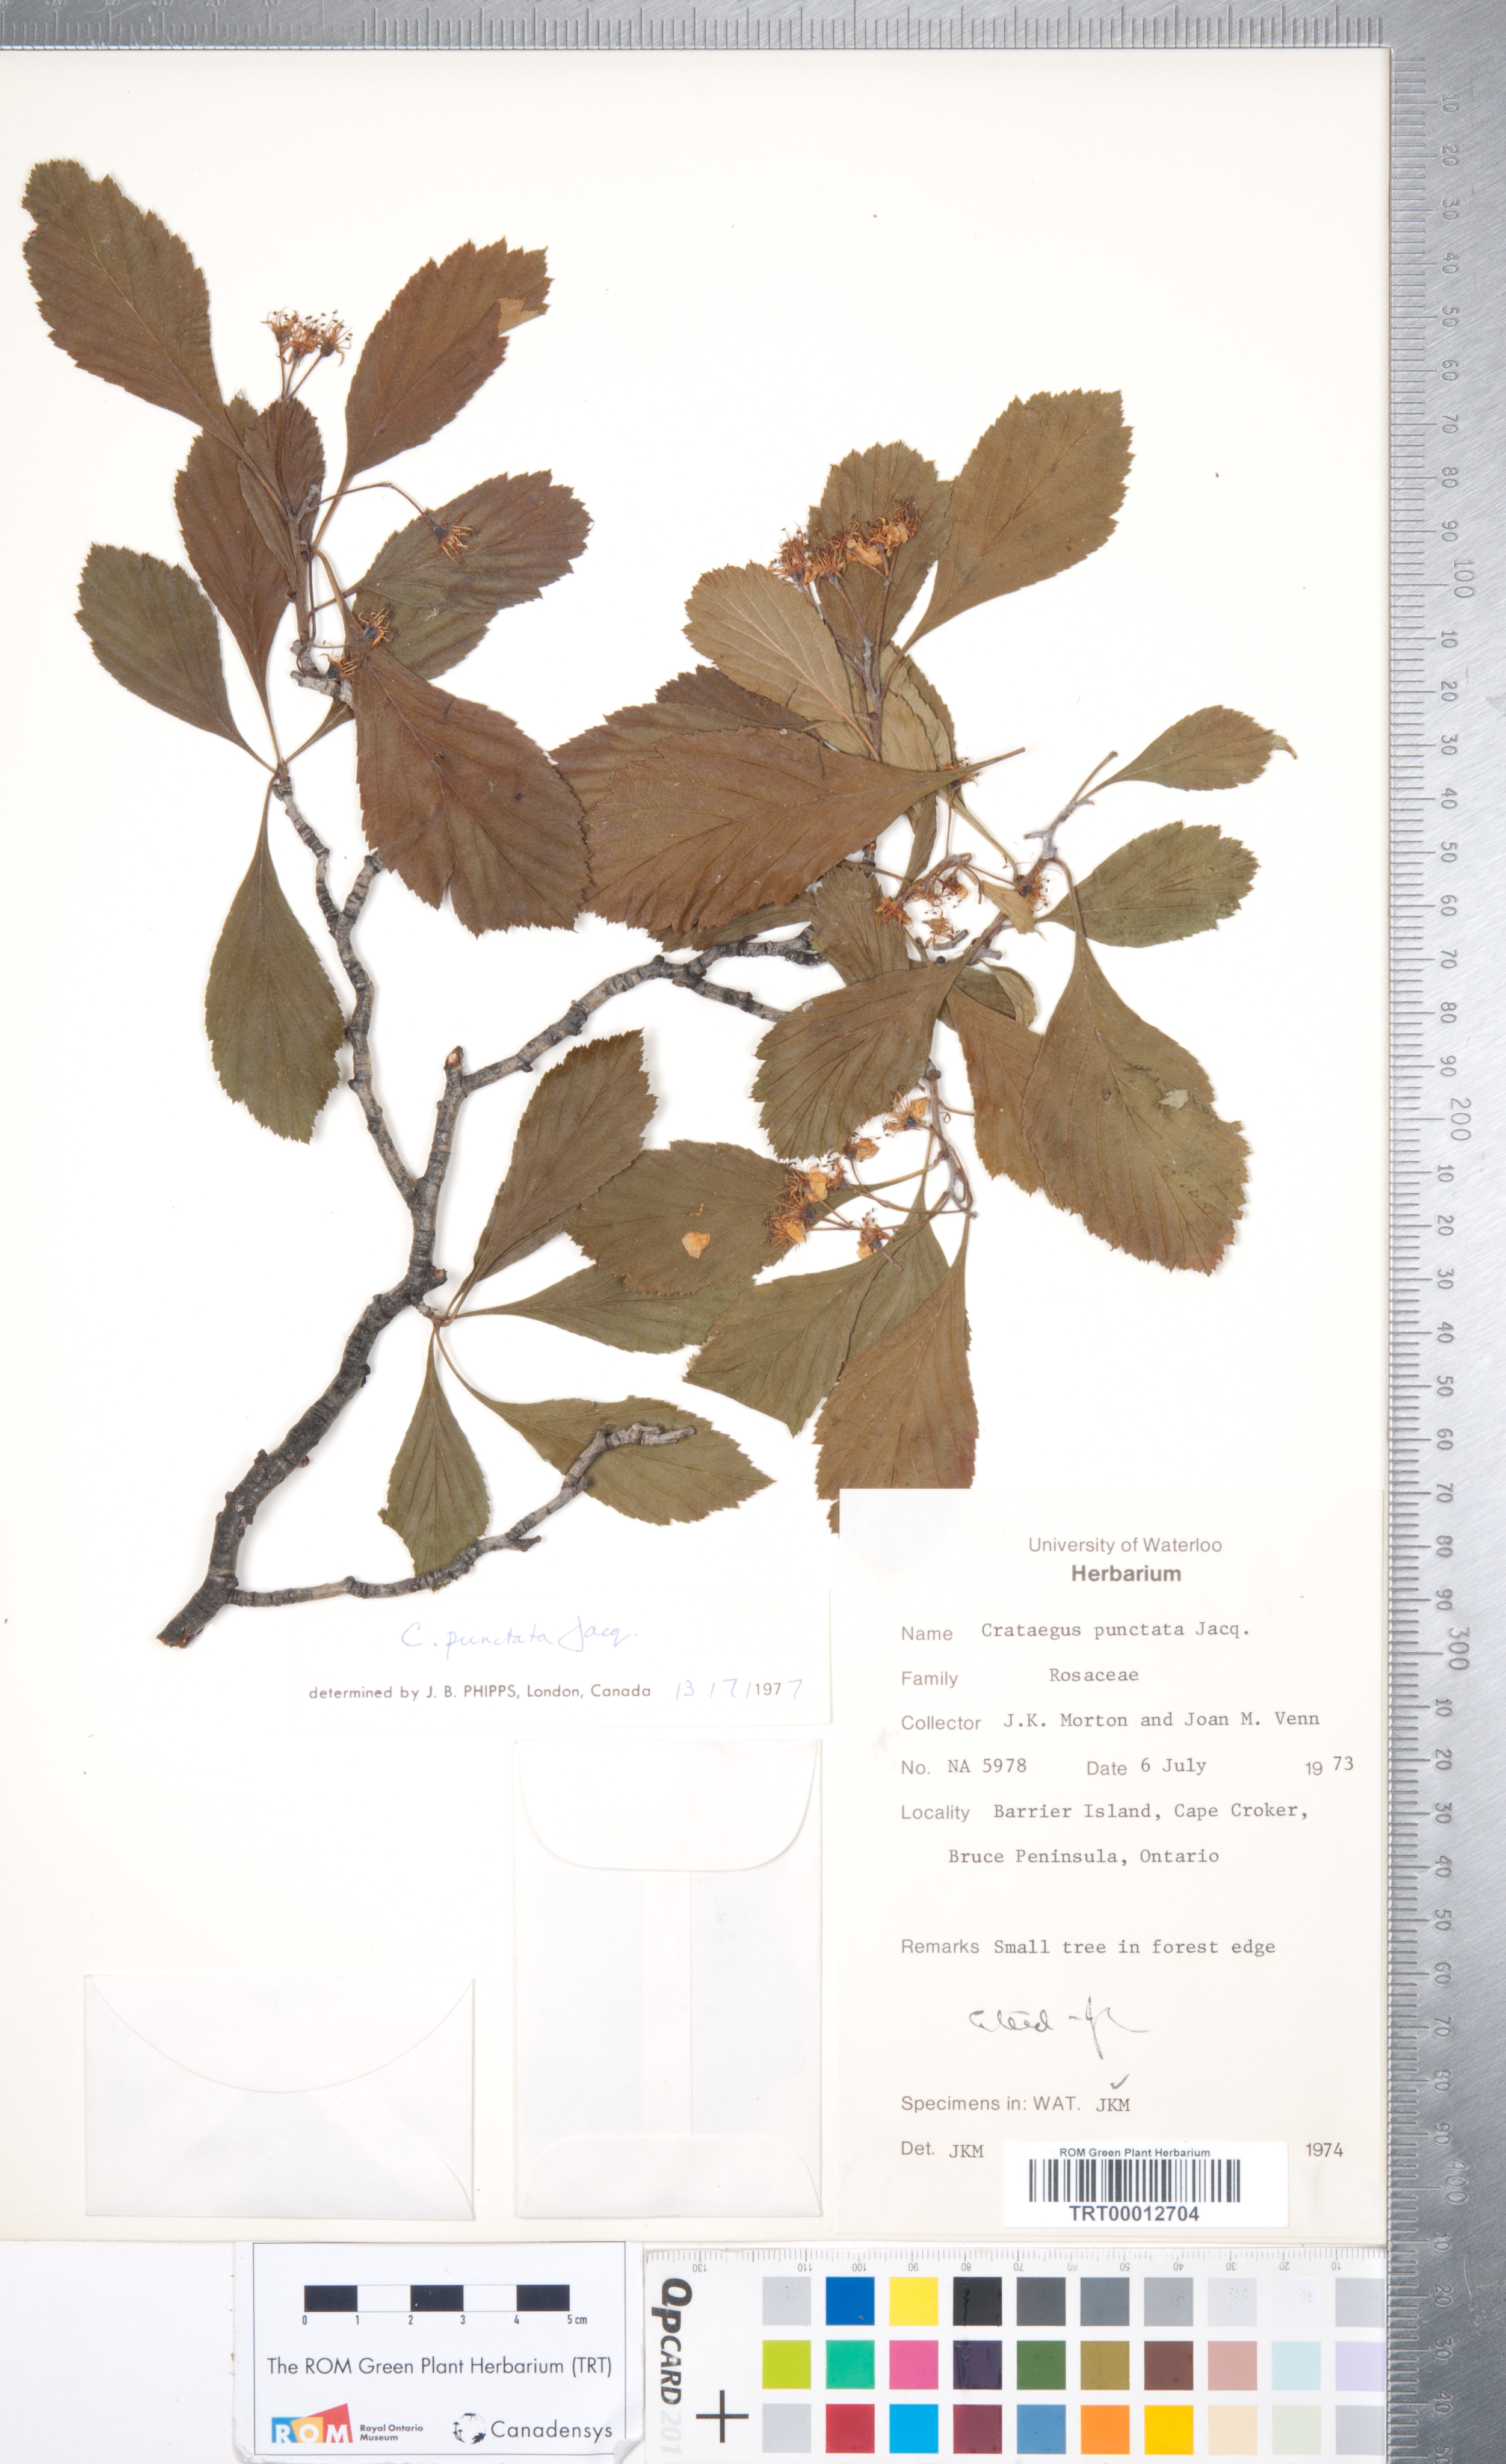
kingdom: Plantae
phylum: Tracheophyta
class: Magnoliopsida
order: Rosales
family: Rosaceae
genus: Crataegus
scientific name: Crataegus punctata
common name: Dotted hawthorn
